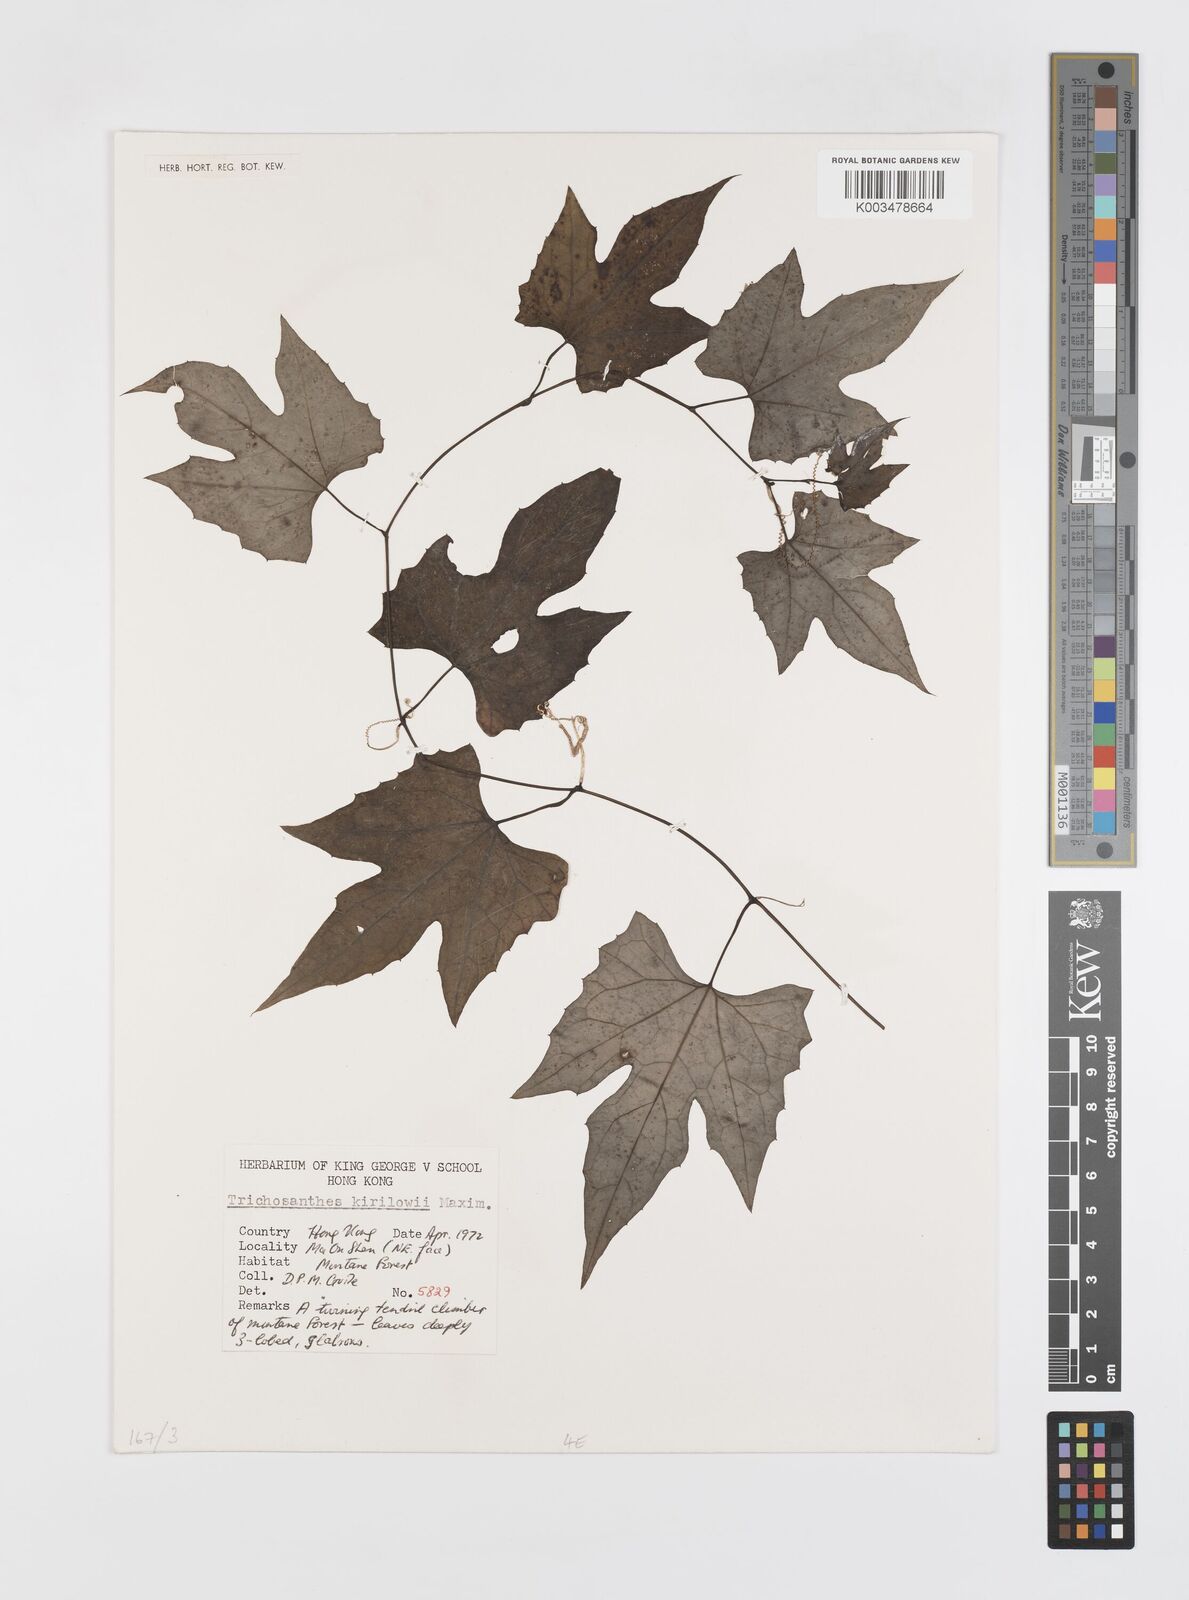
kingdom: Plantae
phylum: Tracheophyta
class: Magnoliopsida
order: Cucurbitales
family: Cucurbitaceae
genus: Trichosanthes
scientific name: Trichosanthes kirilowii
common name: Chinese-cucumber
